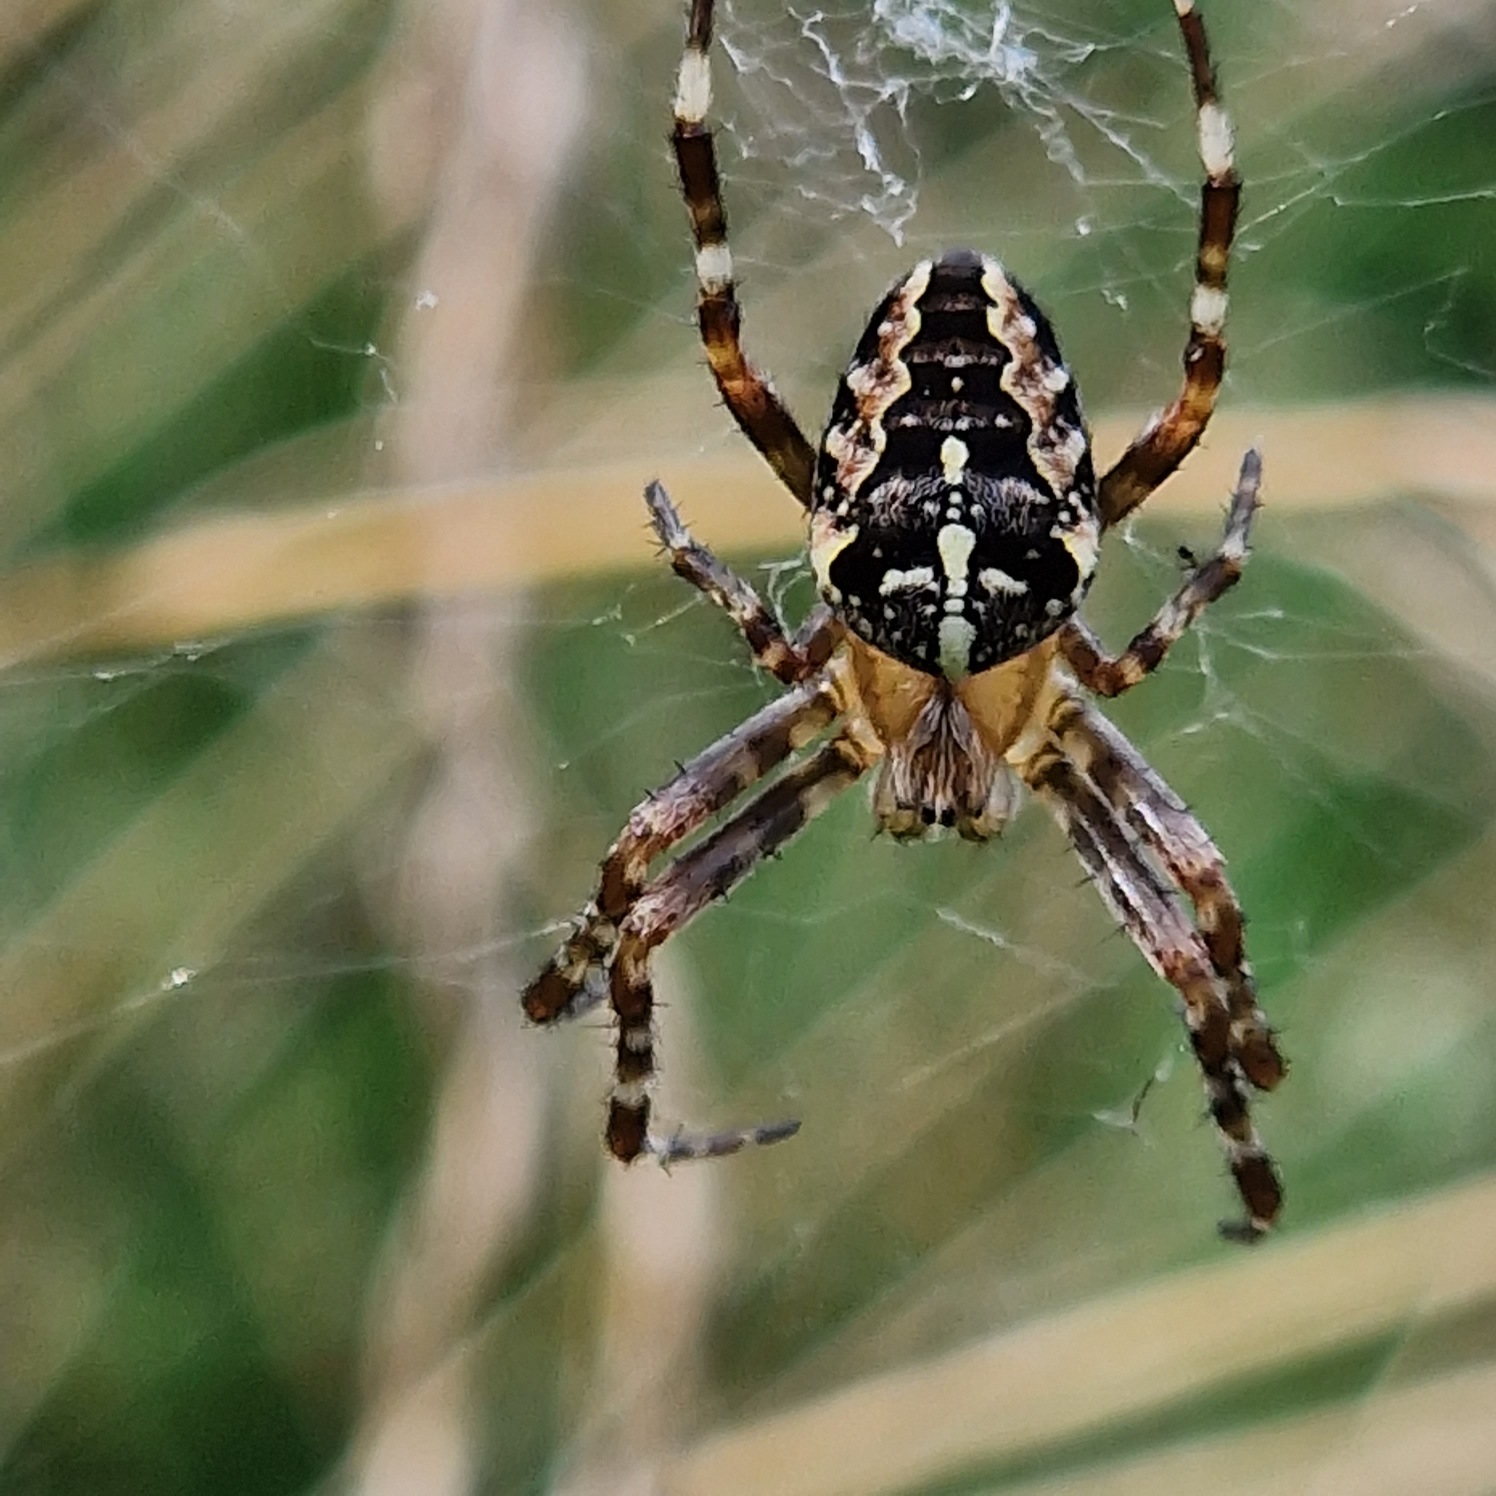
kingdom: Animalia
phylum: Arthropoda
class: Arachnida
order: Araneae
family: Araneidae
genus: Araneus
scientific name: Araneus diadematus
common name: Korsedderkop
